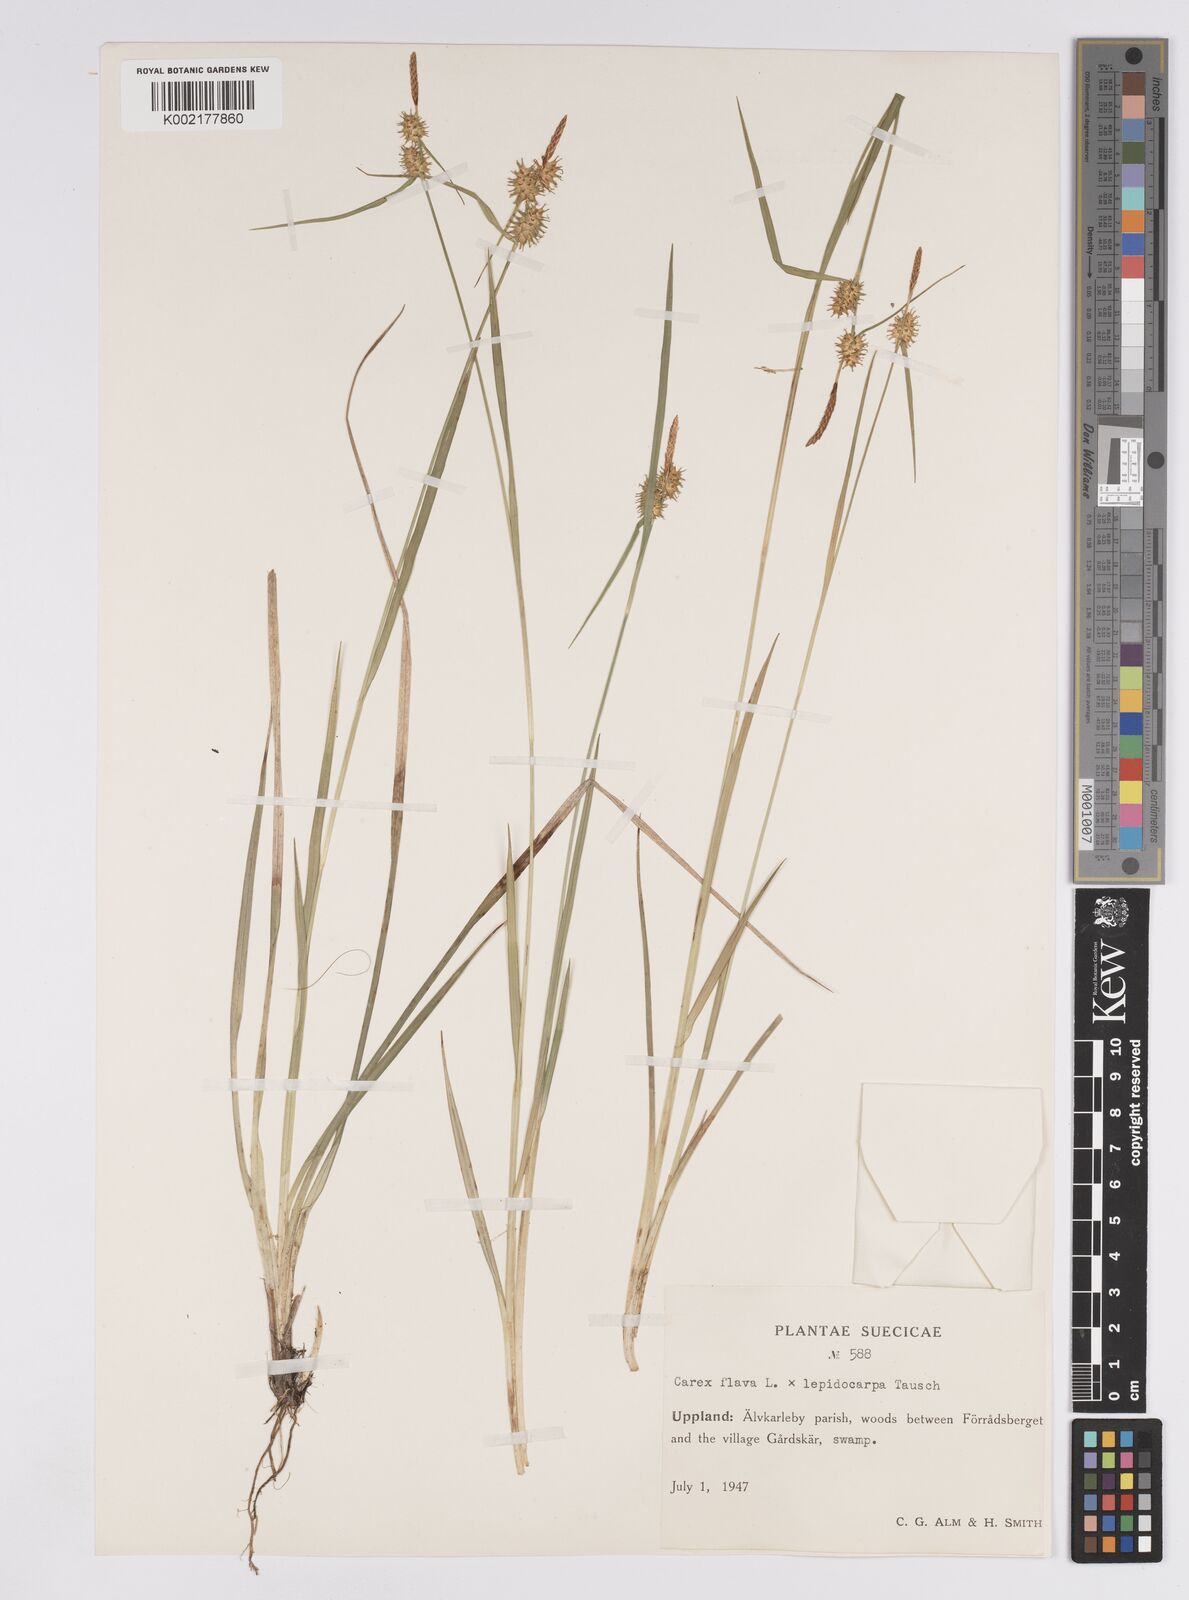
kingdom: Plantae
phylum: Tracheophyta
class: Liliopsida
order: Poales
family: Cyperaceae
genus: Carex
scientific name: Carex flava
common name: Large yellow-sedge
